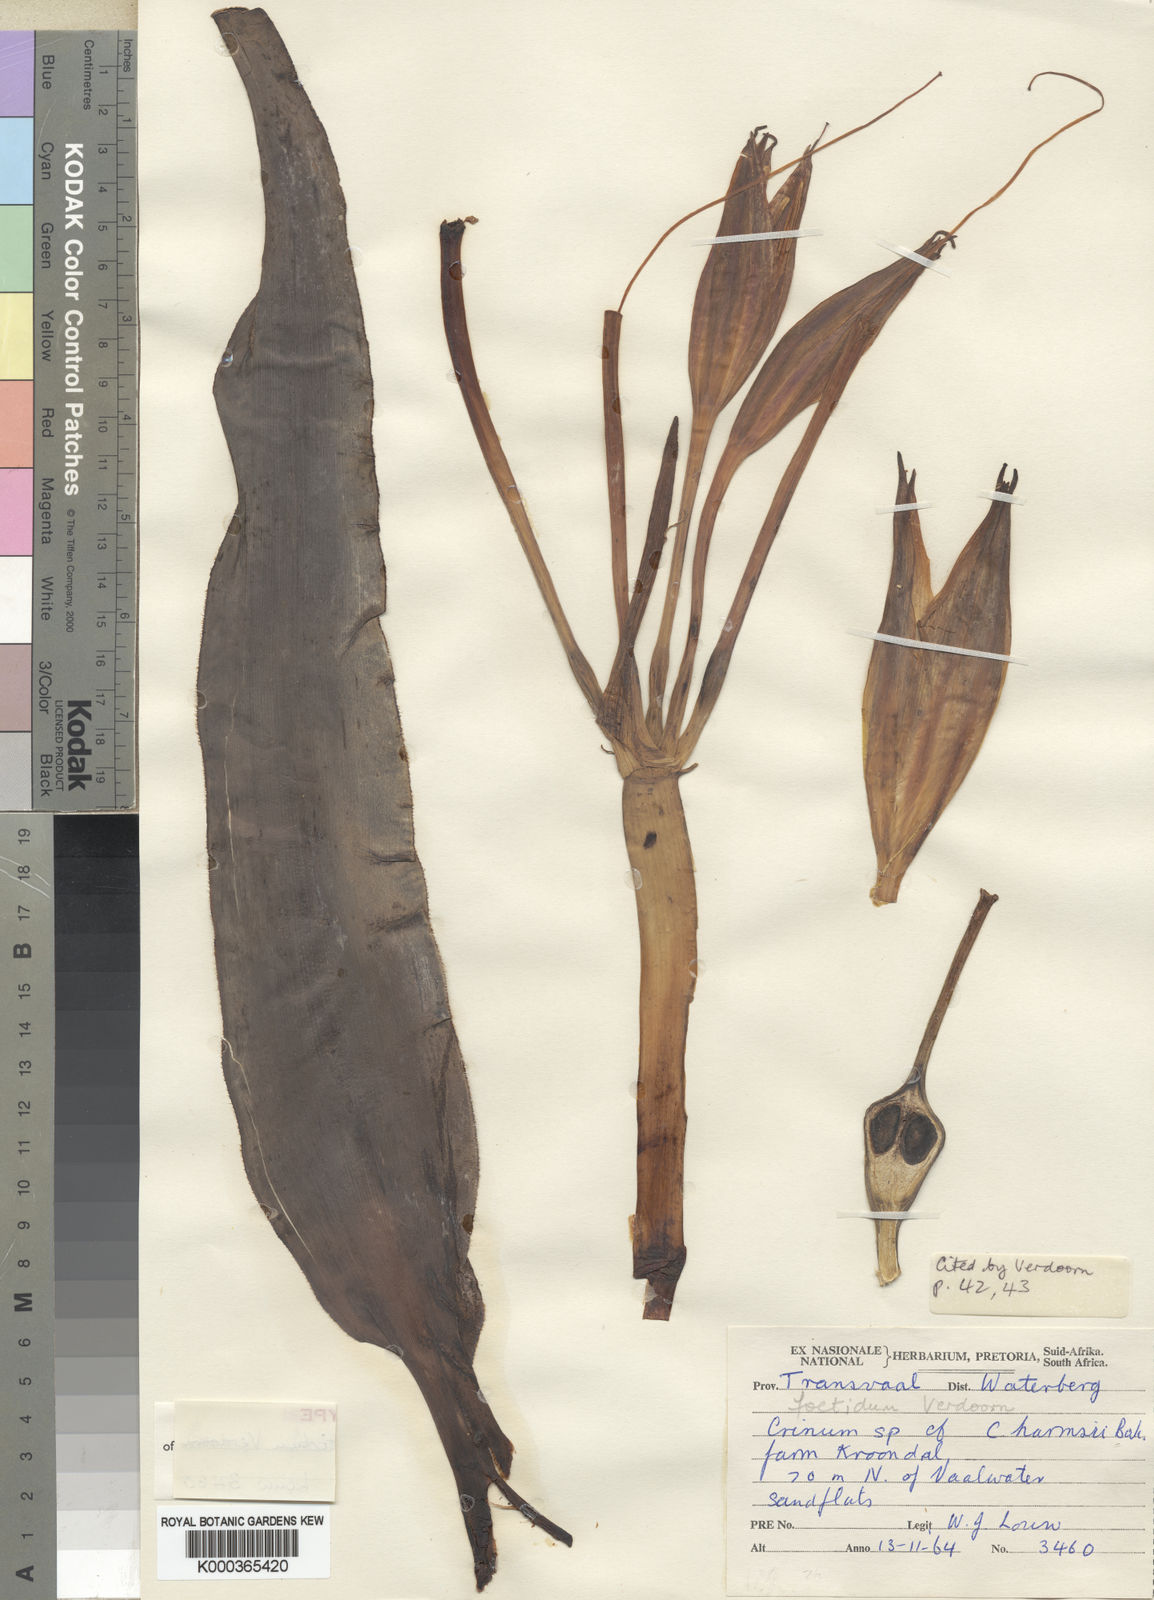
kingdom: Plantae
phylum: Tracheophyta
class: Liliopsida
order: Asparagales
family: Amaryllidaceae
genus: Crinum
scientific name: Crinum crassicaule
